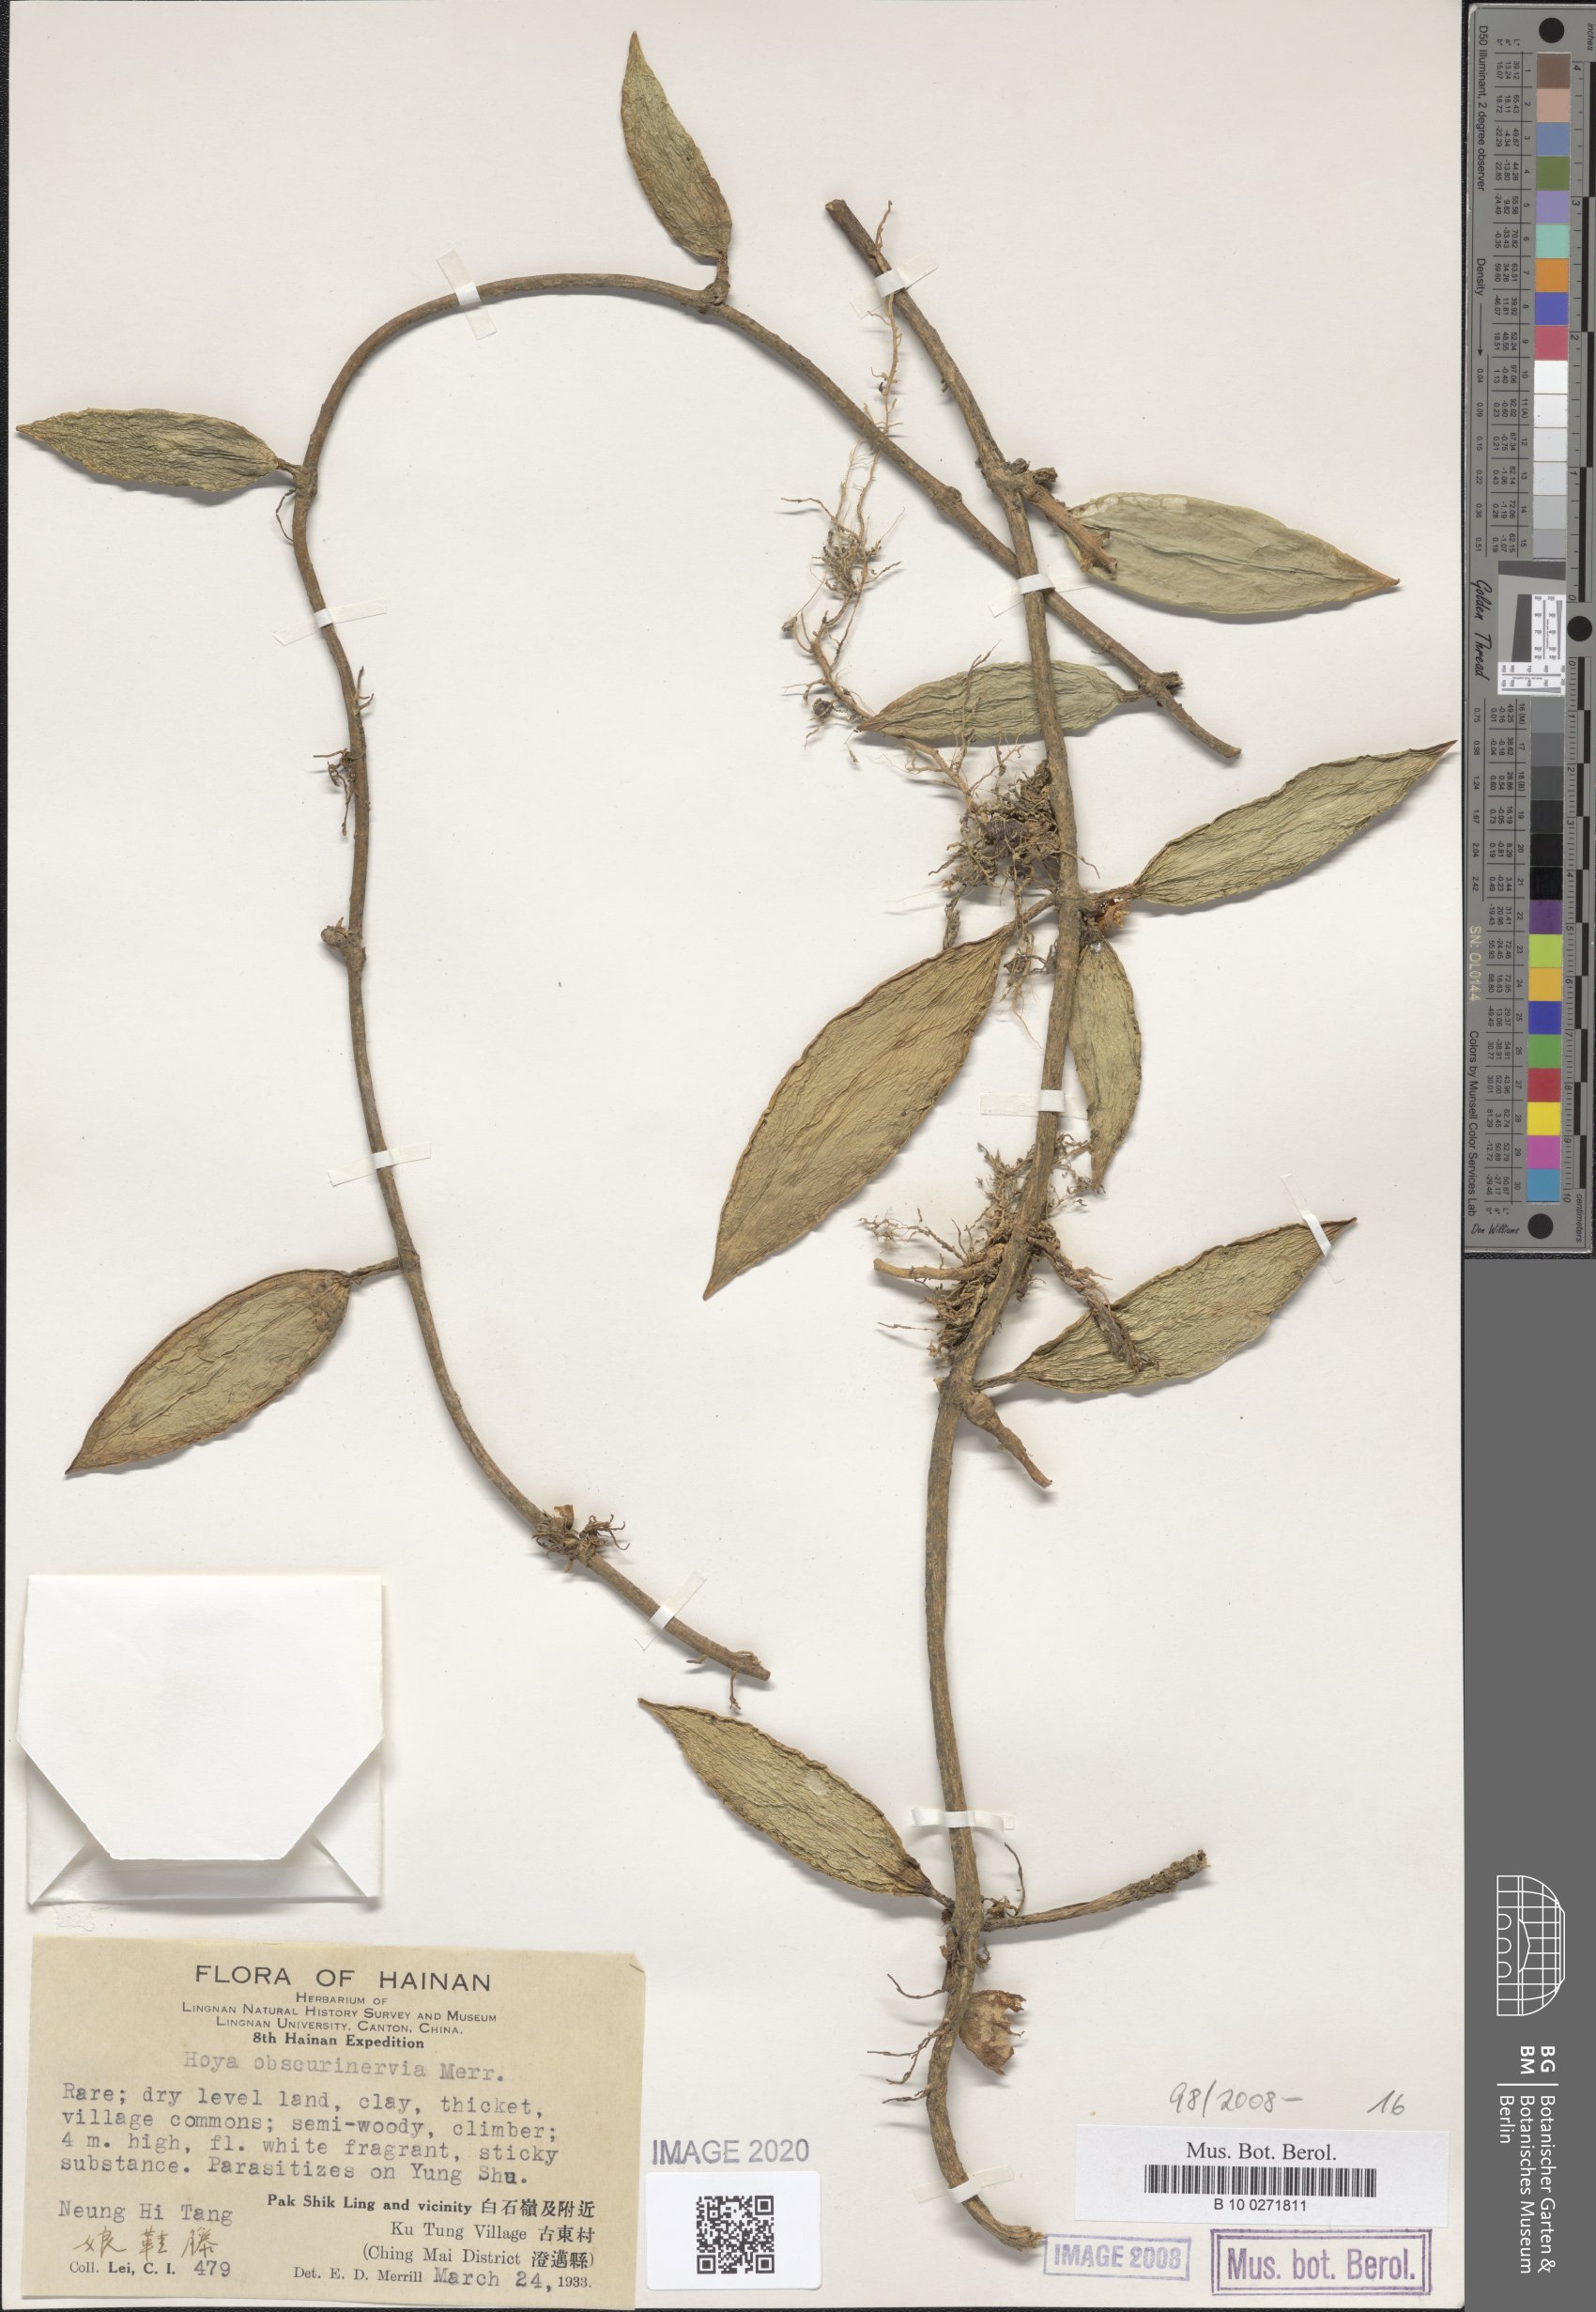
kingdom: Plantae
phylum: Tracheophyta
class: Magnoliopsida
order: Gentianales
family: Apocynaceae
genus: Hoya
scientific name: Hoya verticillata
